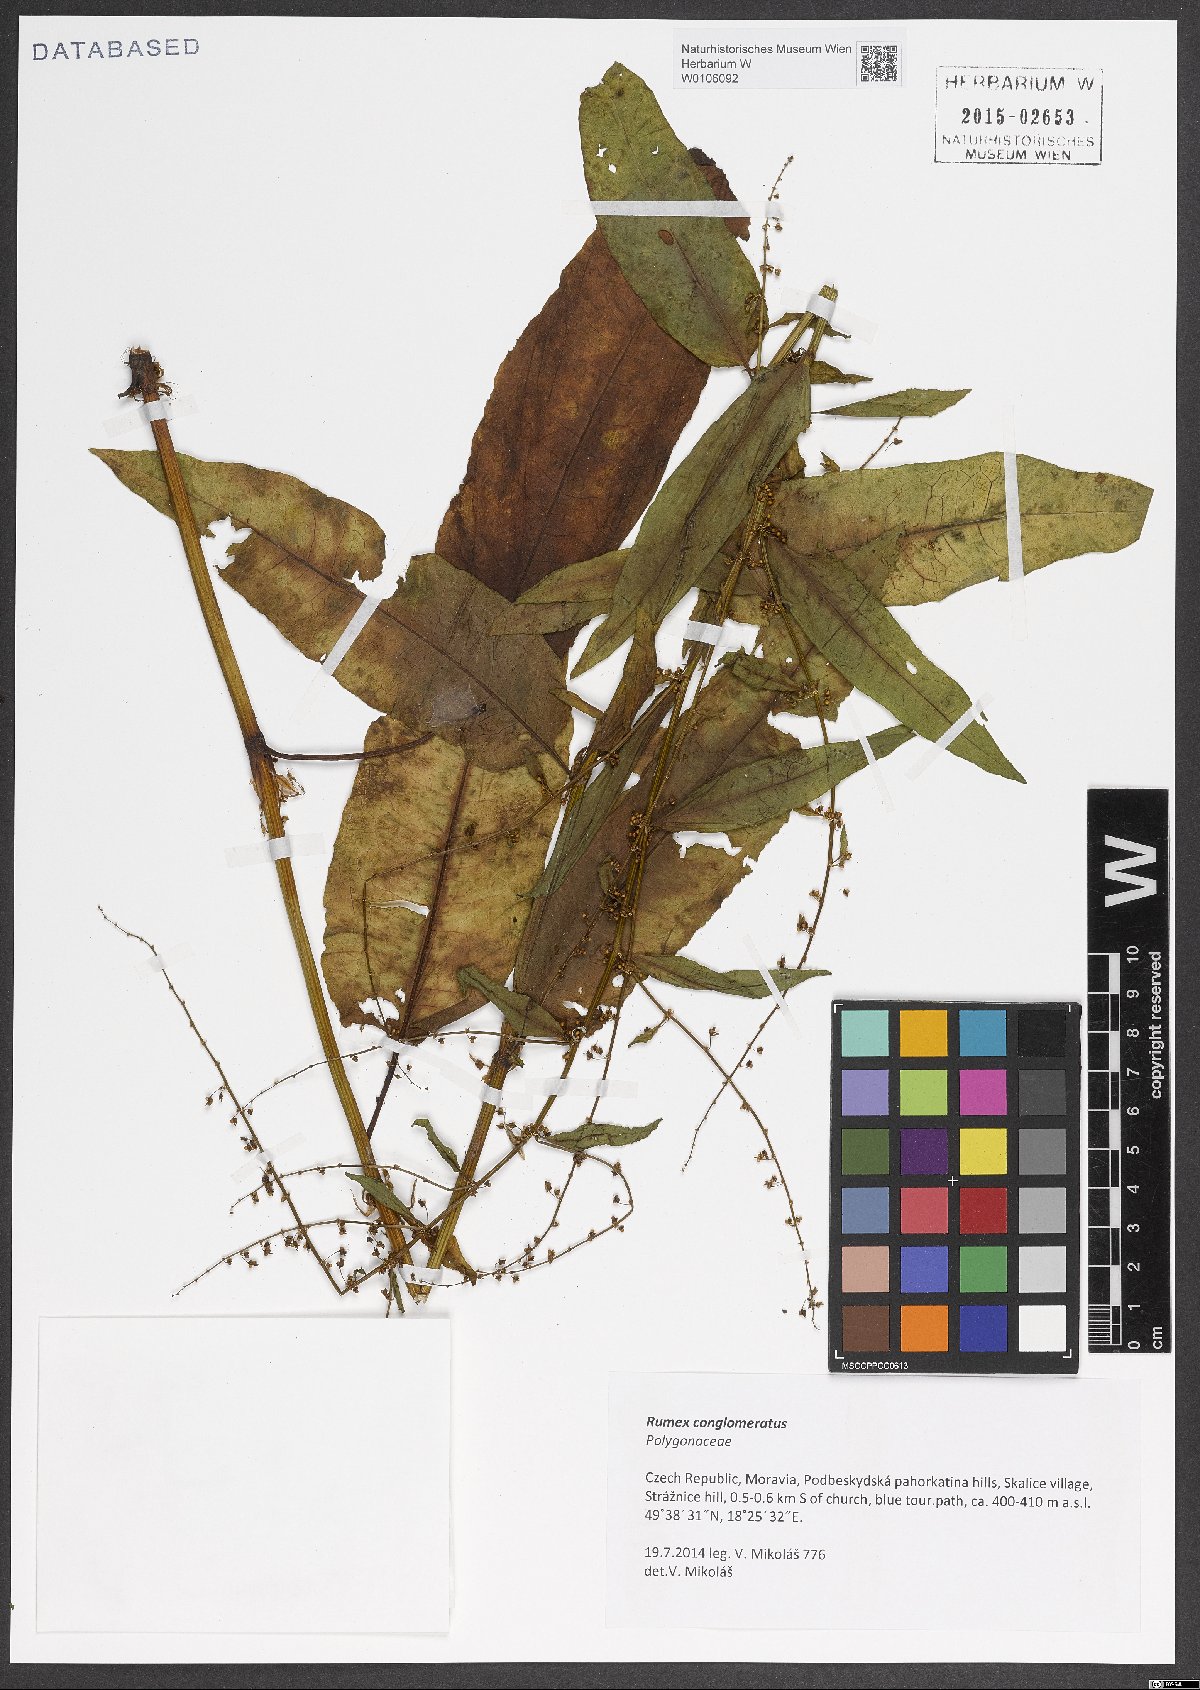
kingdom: Plantae
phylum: Tracheophyta
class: Magnoliopsida
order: Caryophyllales
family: Polygonaceae
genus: Rumex
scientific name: Rumex conglomeratus
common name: Clustered dock
